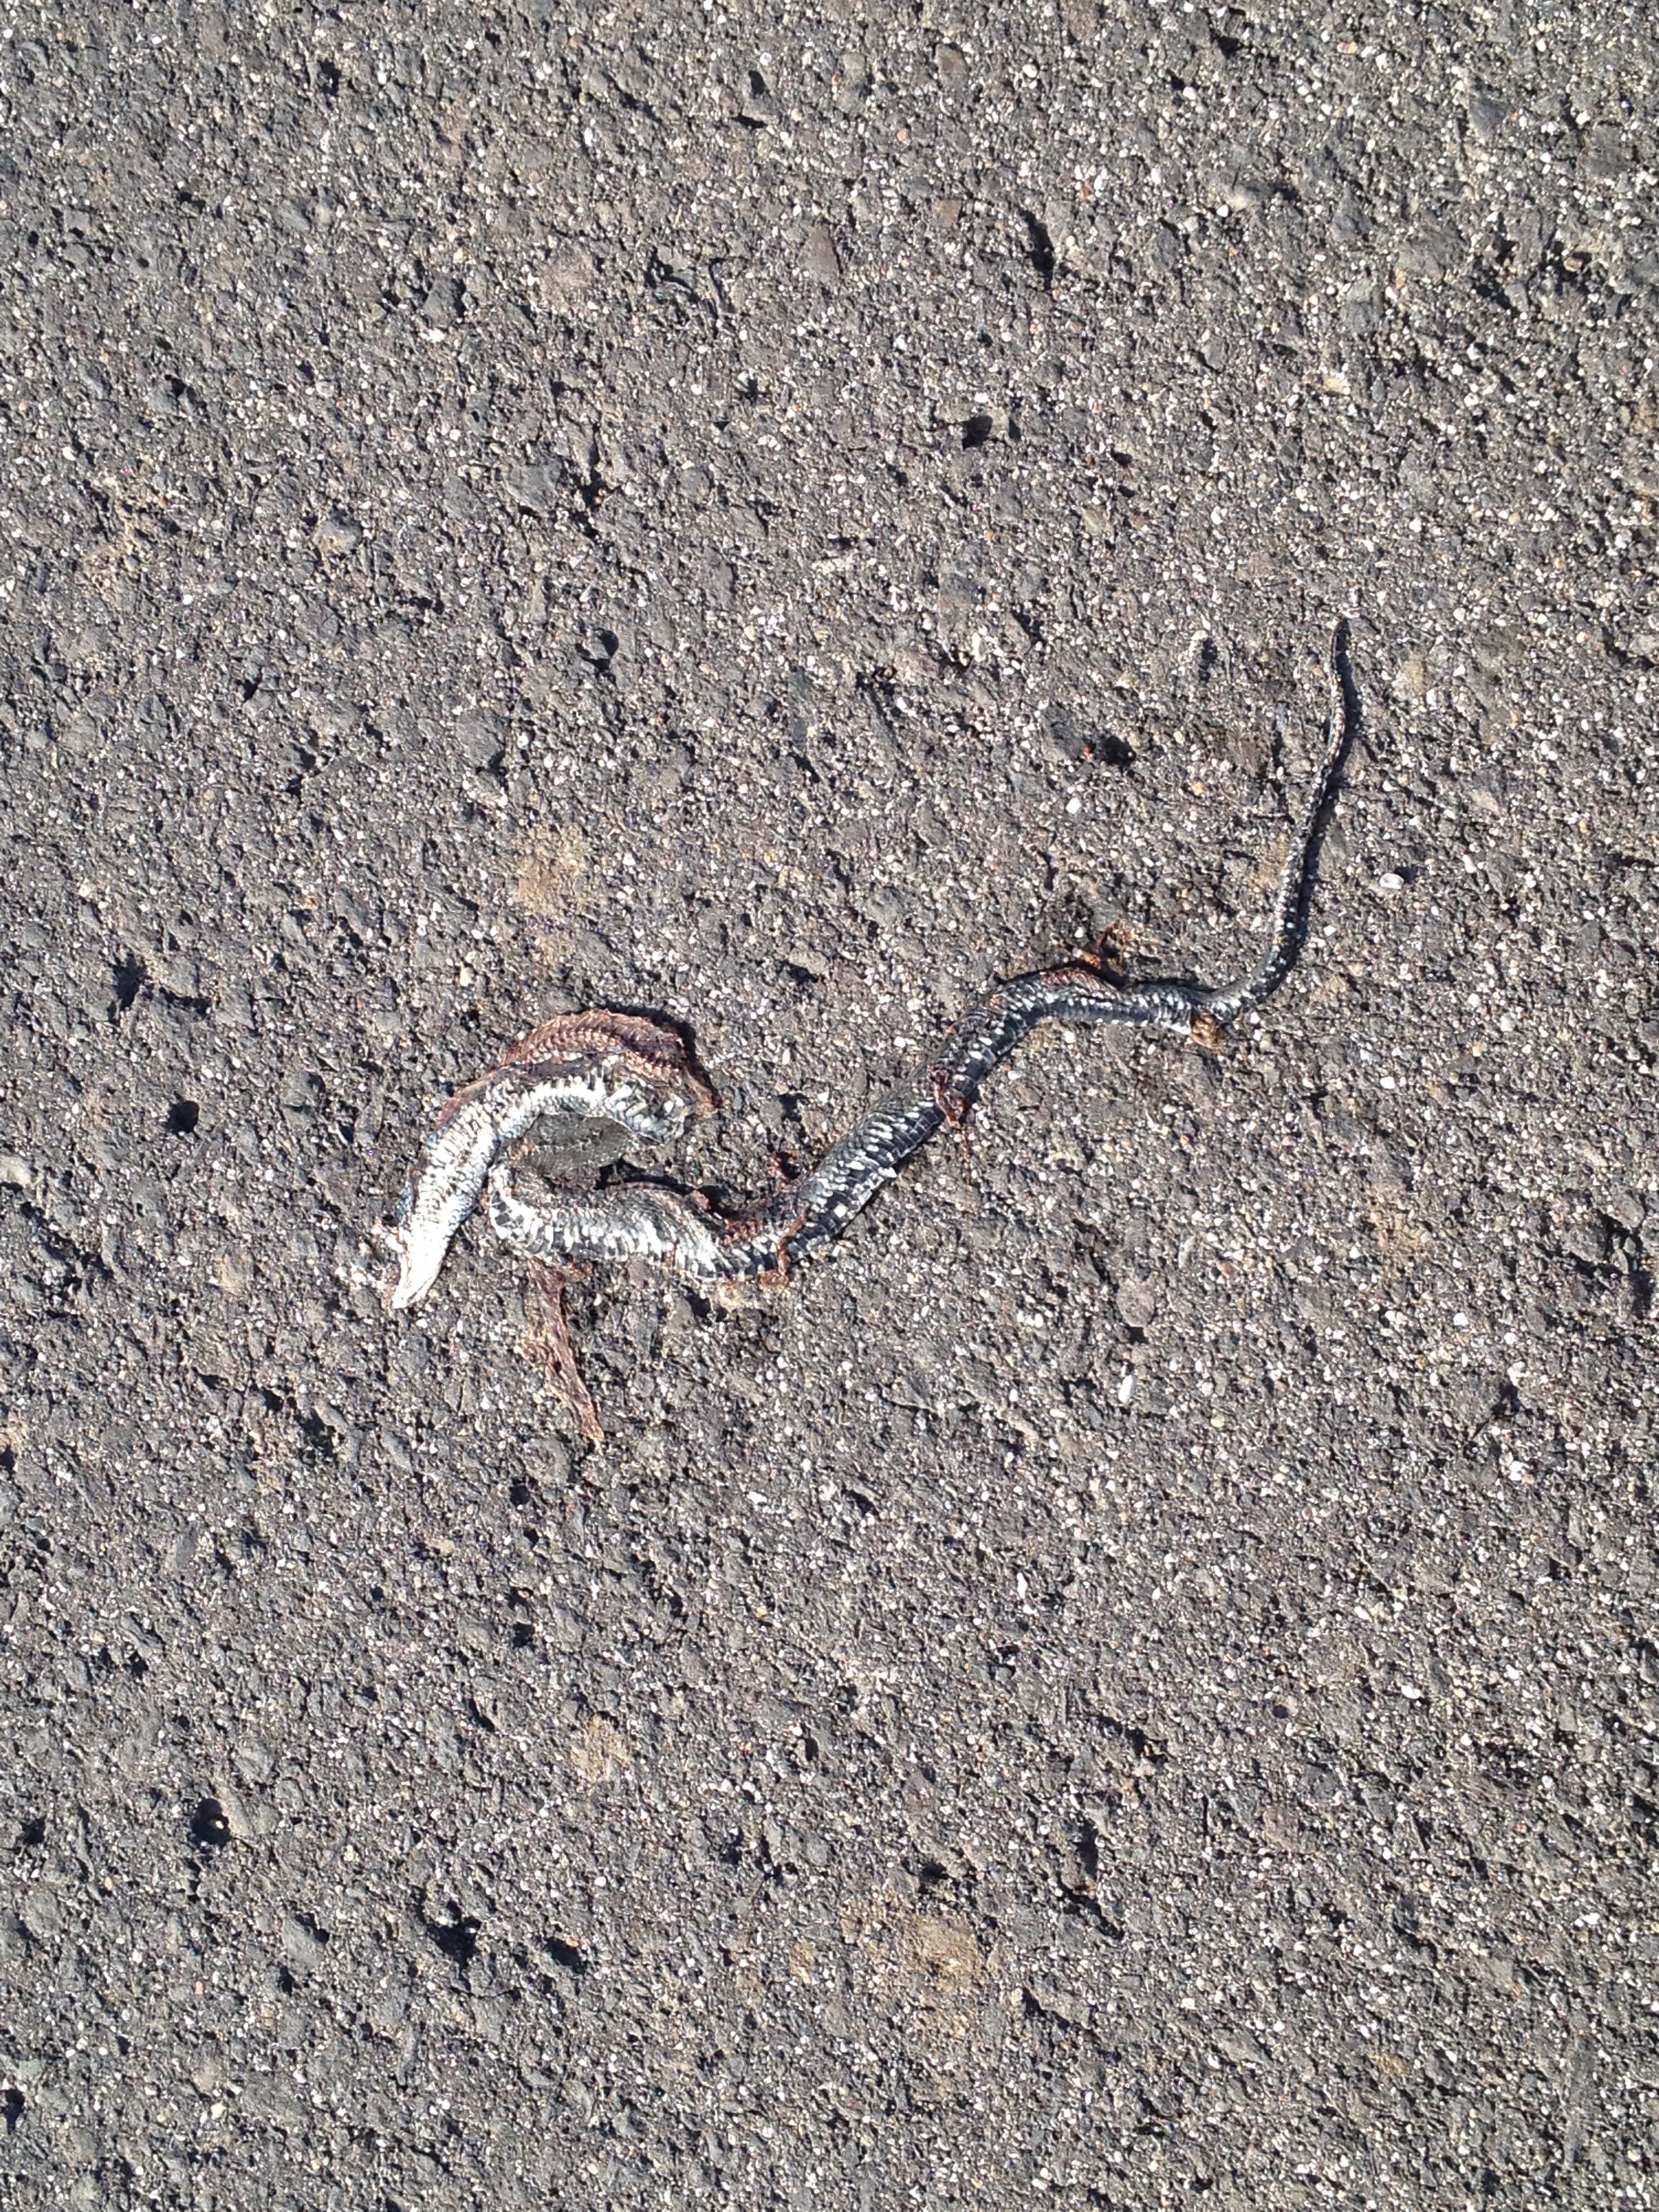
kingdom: Animalia
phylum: Chordata
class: Squamata
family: Colubridae
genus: Natrix
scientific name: Natrix natrix
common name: Grass snake
